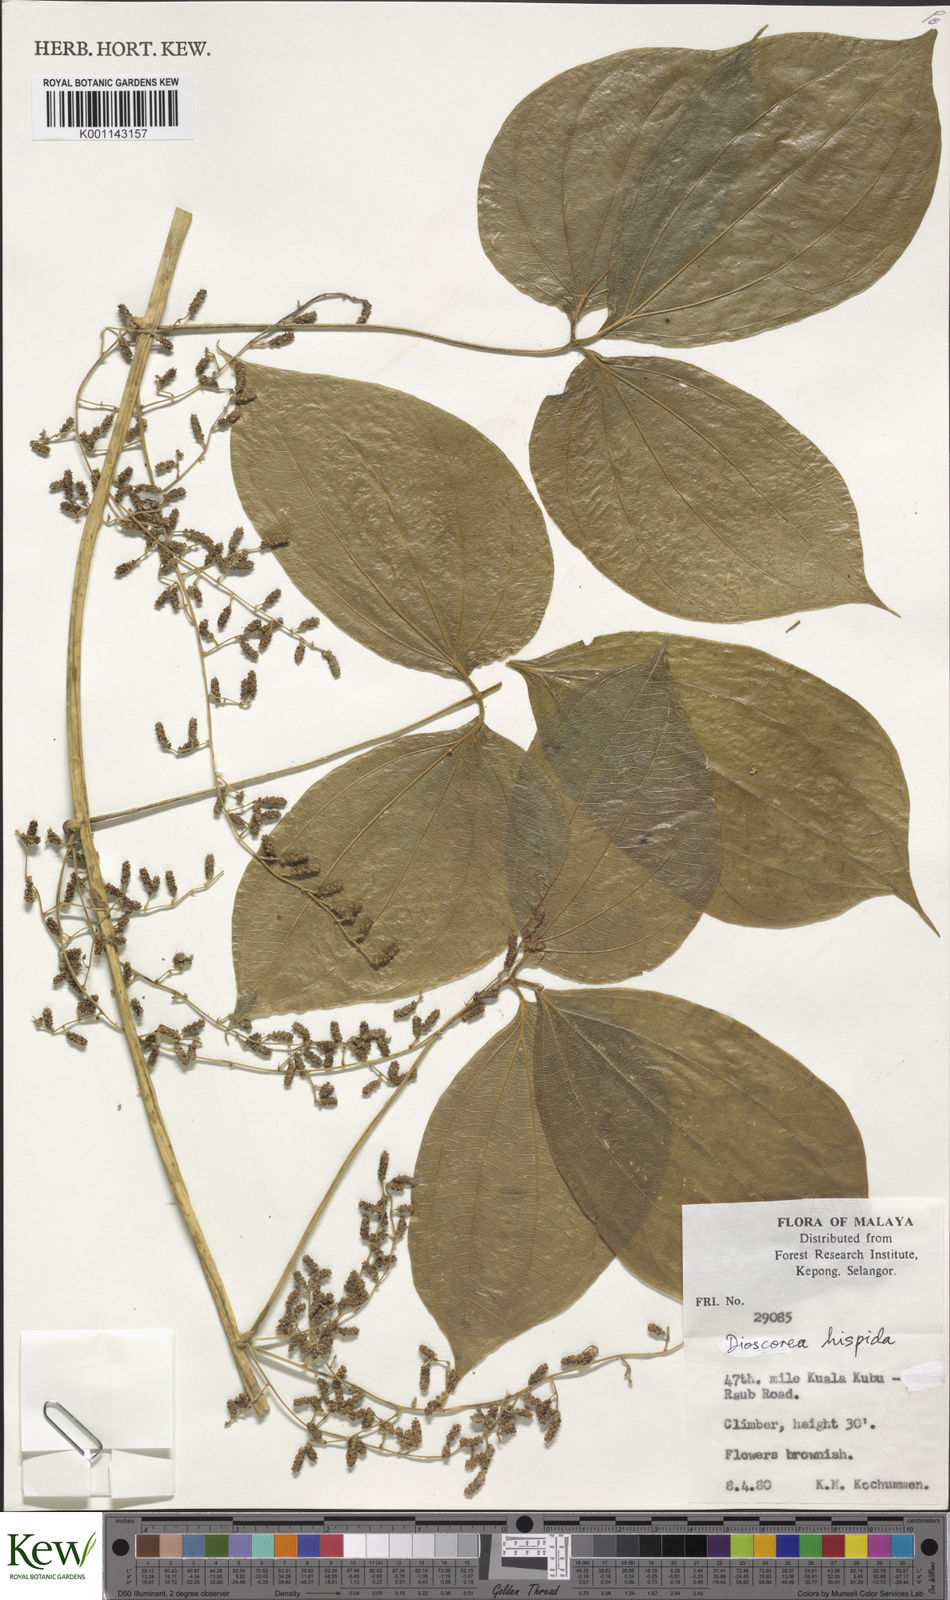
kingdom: Plantae
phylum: Tracheophyta
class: Liliopsida
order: Dioscoreales
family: Dioscoreaceae
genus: Dioscorea
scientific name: Dioscorea hispida
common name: Asiatic bitter yam
